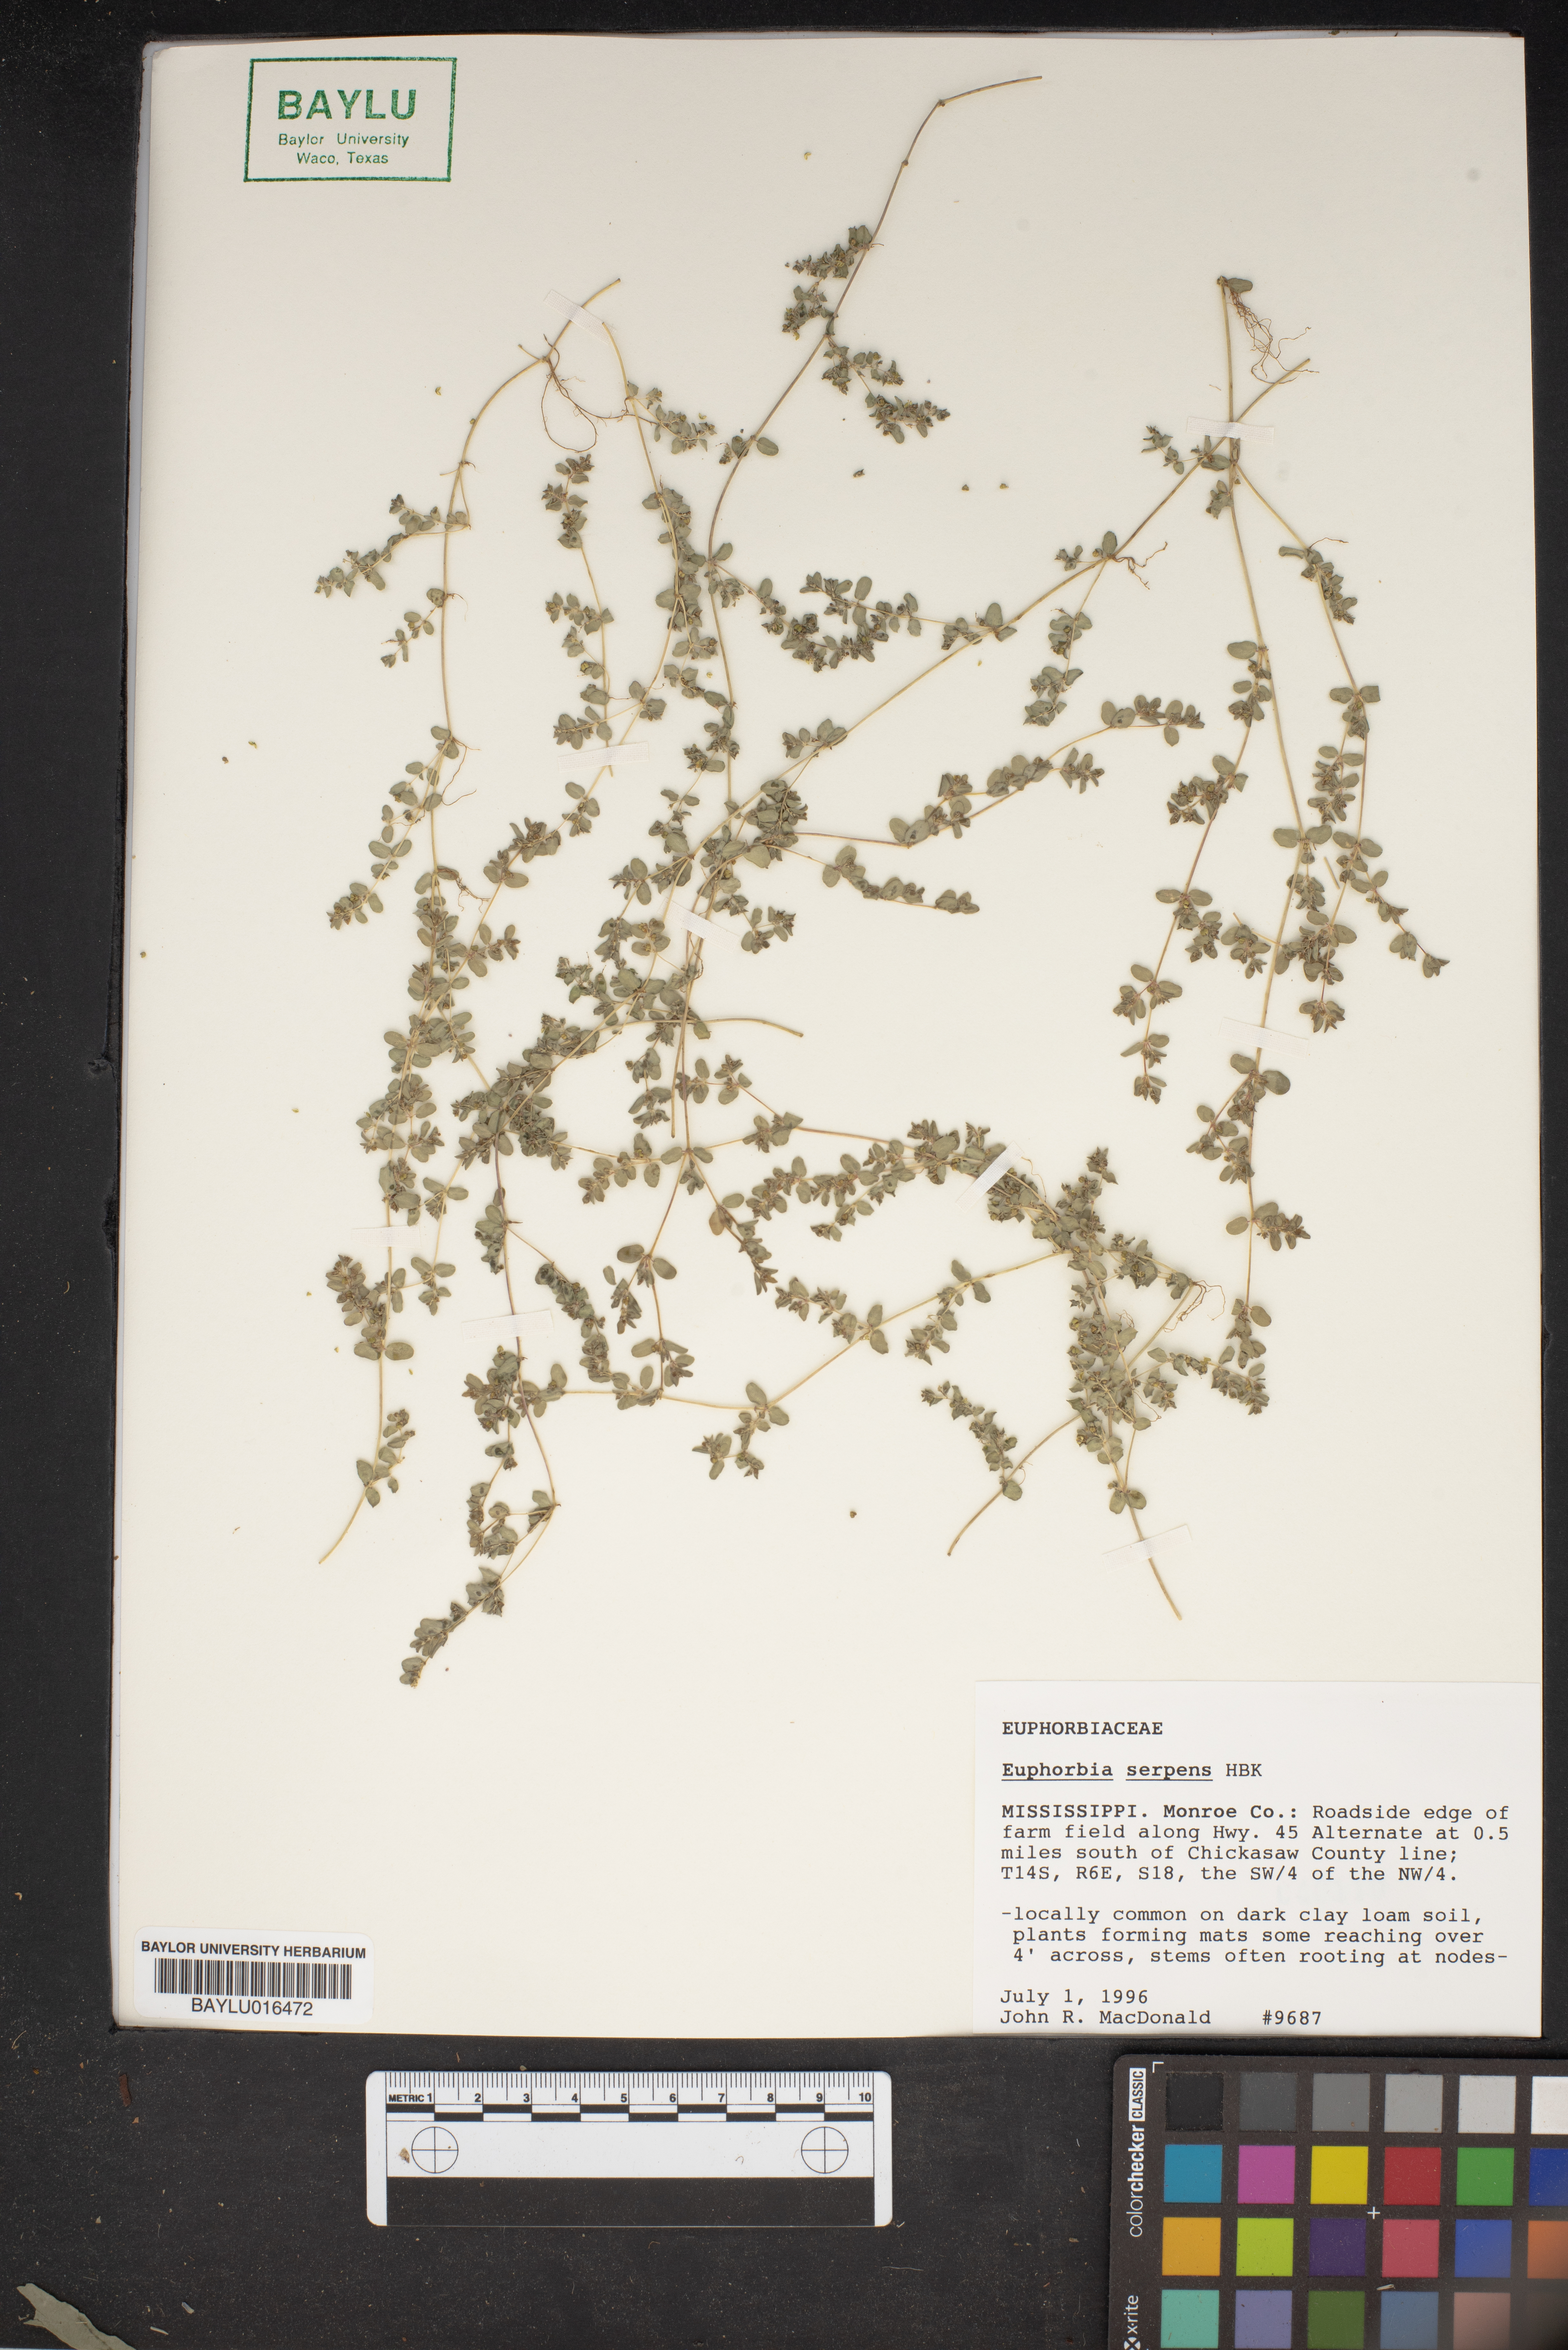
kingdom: Plantae
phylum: Tracheophyta
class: Magnoliopsida
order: Malpighiales
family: Euphorbiaceae
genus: Euphorbia
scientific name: Euphorbia serpens
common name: Matted sandmat
